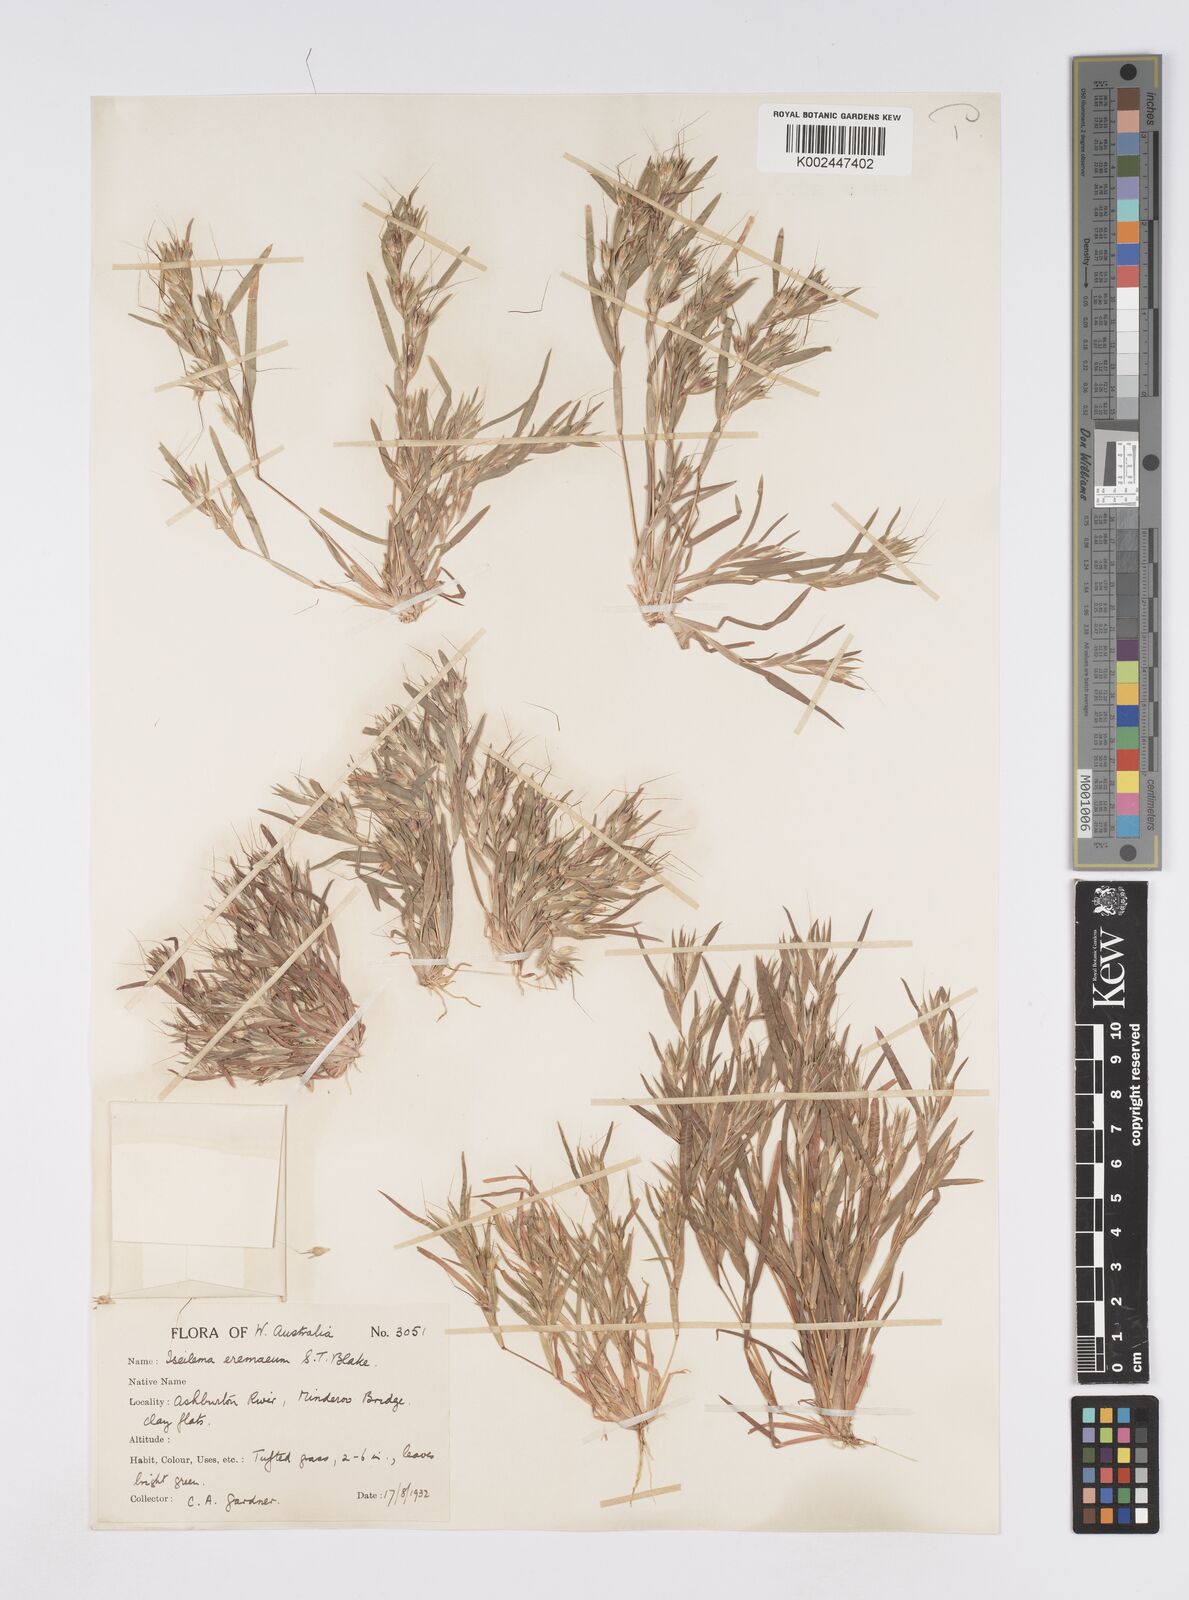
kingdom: Plantae
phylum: Tracheophyta
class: Liliopsida
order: Poales
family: Poaceae
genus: Iseilema
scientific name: Iseilema eremaeum
